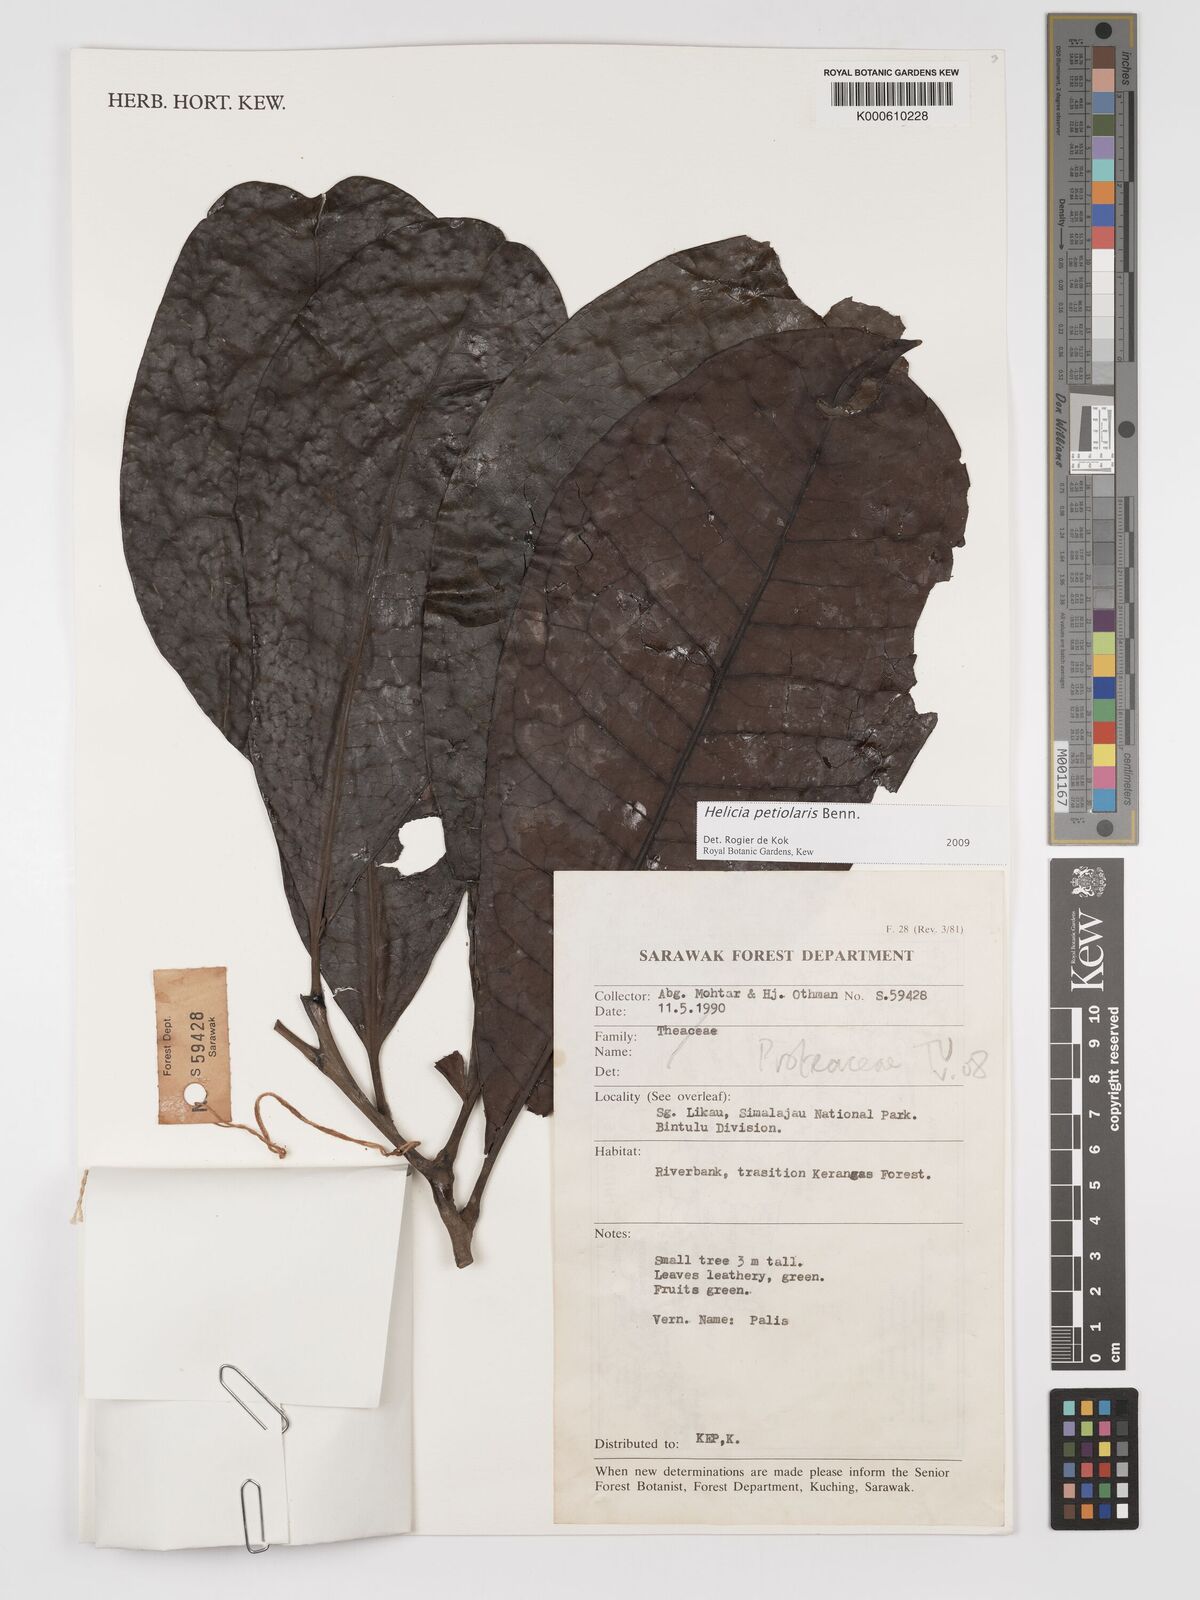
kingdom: Plantae
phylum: Tracheophyta
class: Magnoliopsida
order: Proteales
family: Proteaceae
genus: Helicia
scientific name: Helicia petiolaris
